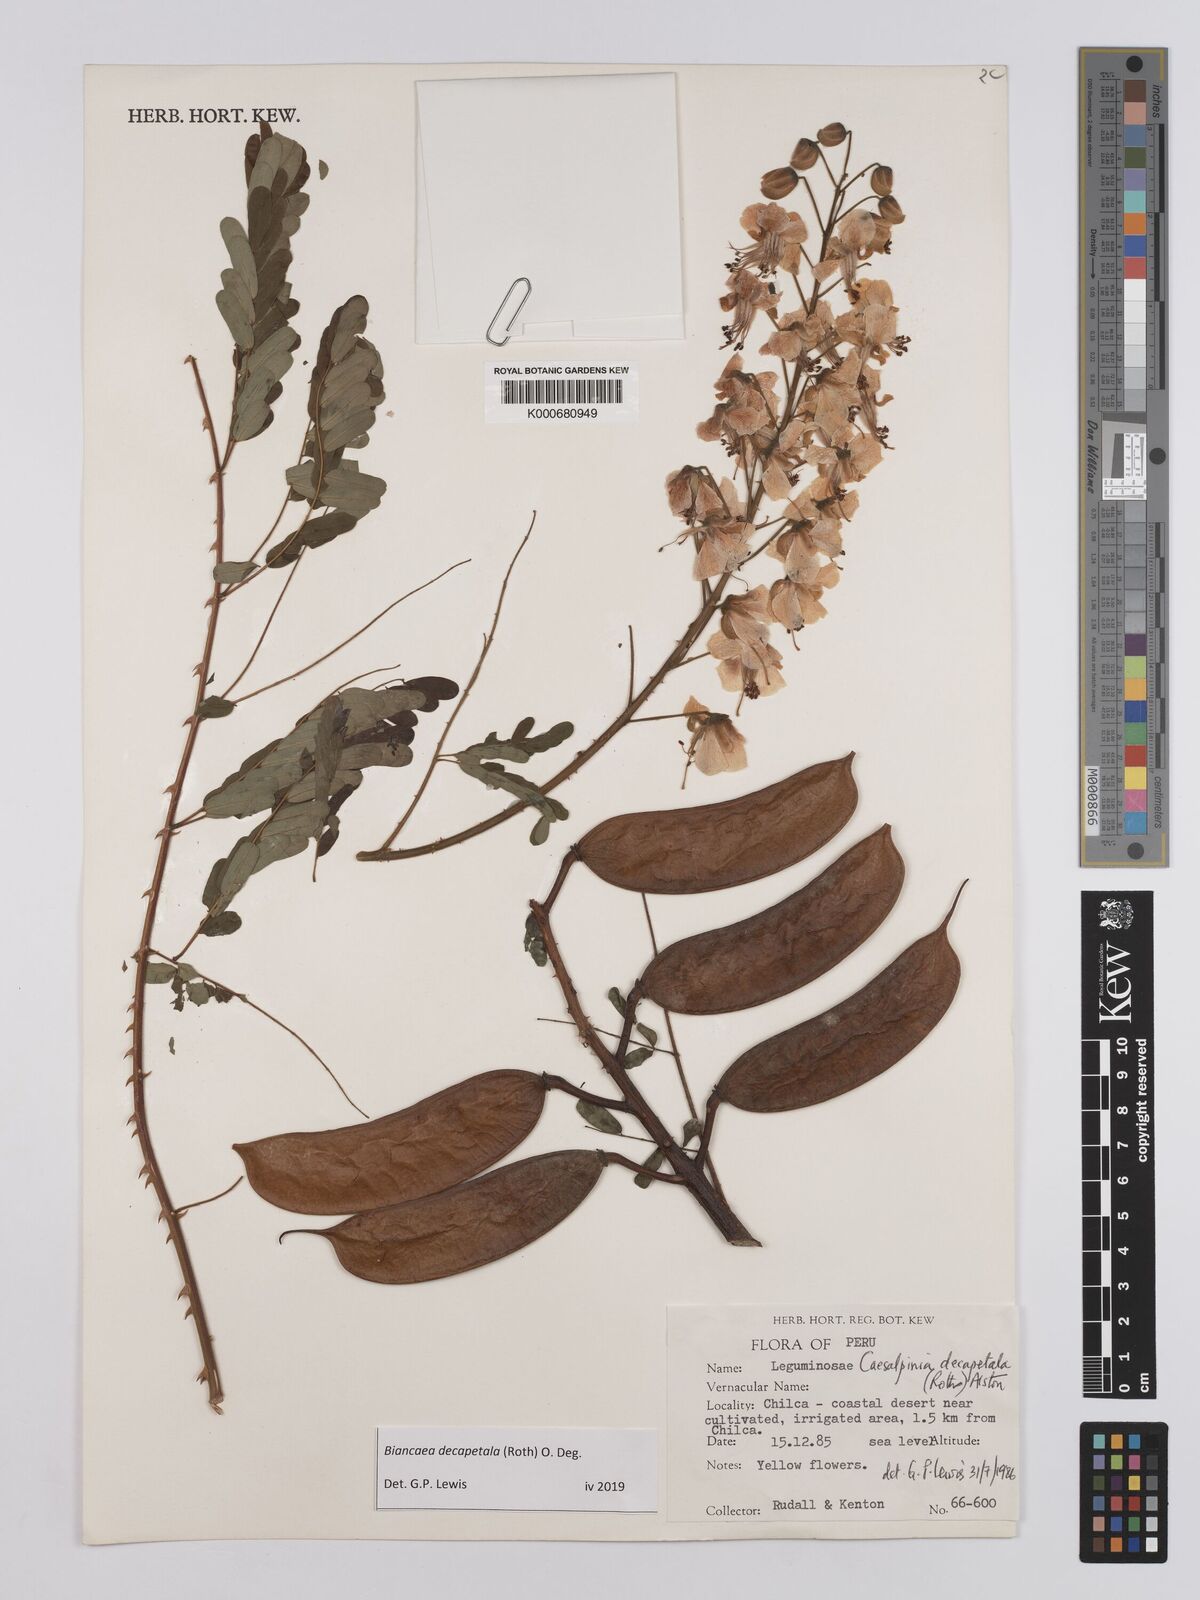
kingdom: Plantae
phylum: Tracheophyta
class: Magnoliopsida
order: Fabales
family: Fabaceae
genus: Biancaea
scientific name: Biancaea decapetala
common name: Cat's claw
